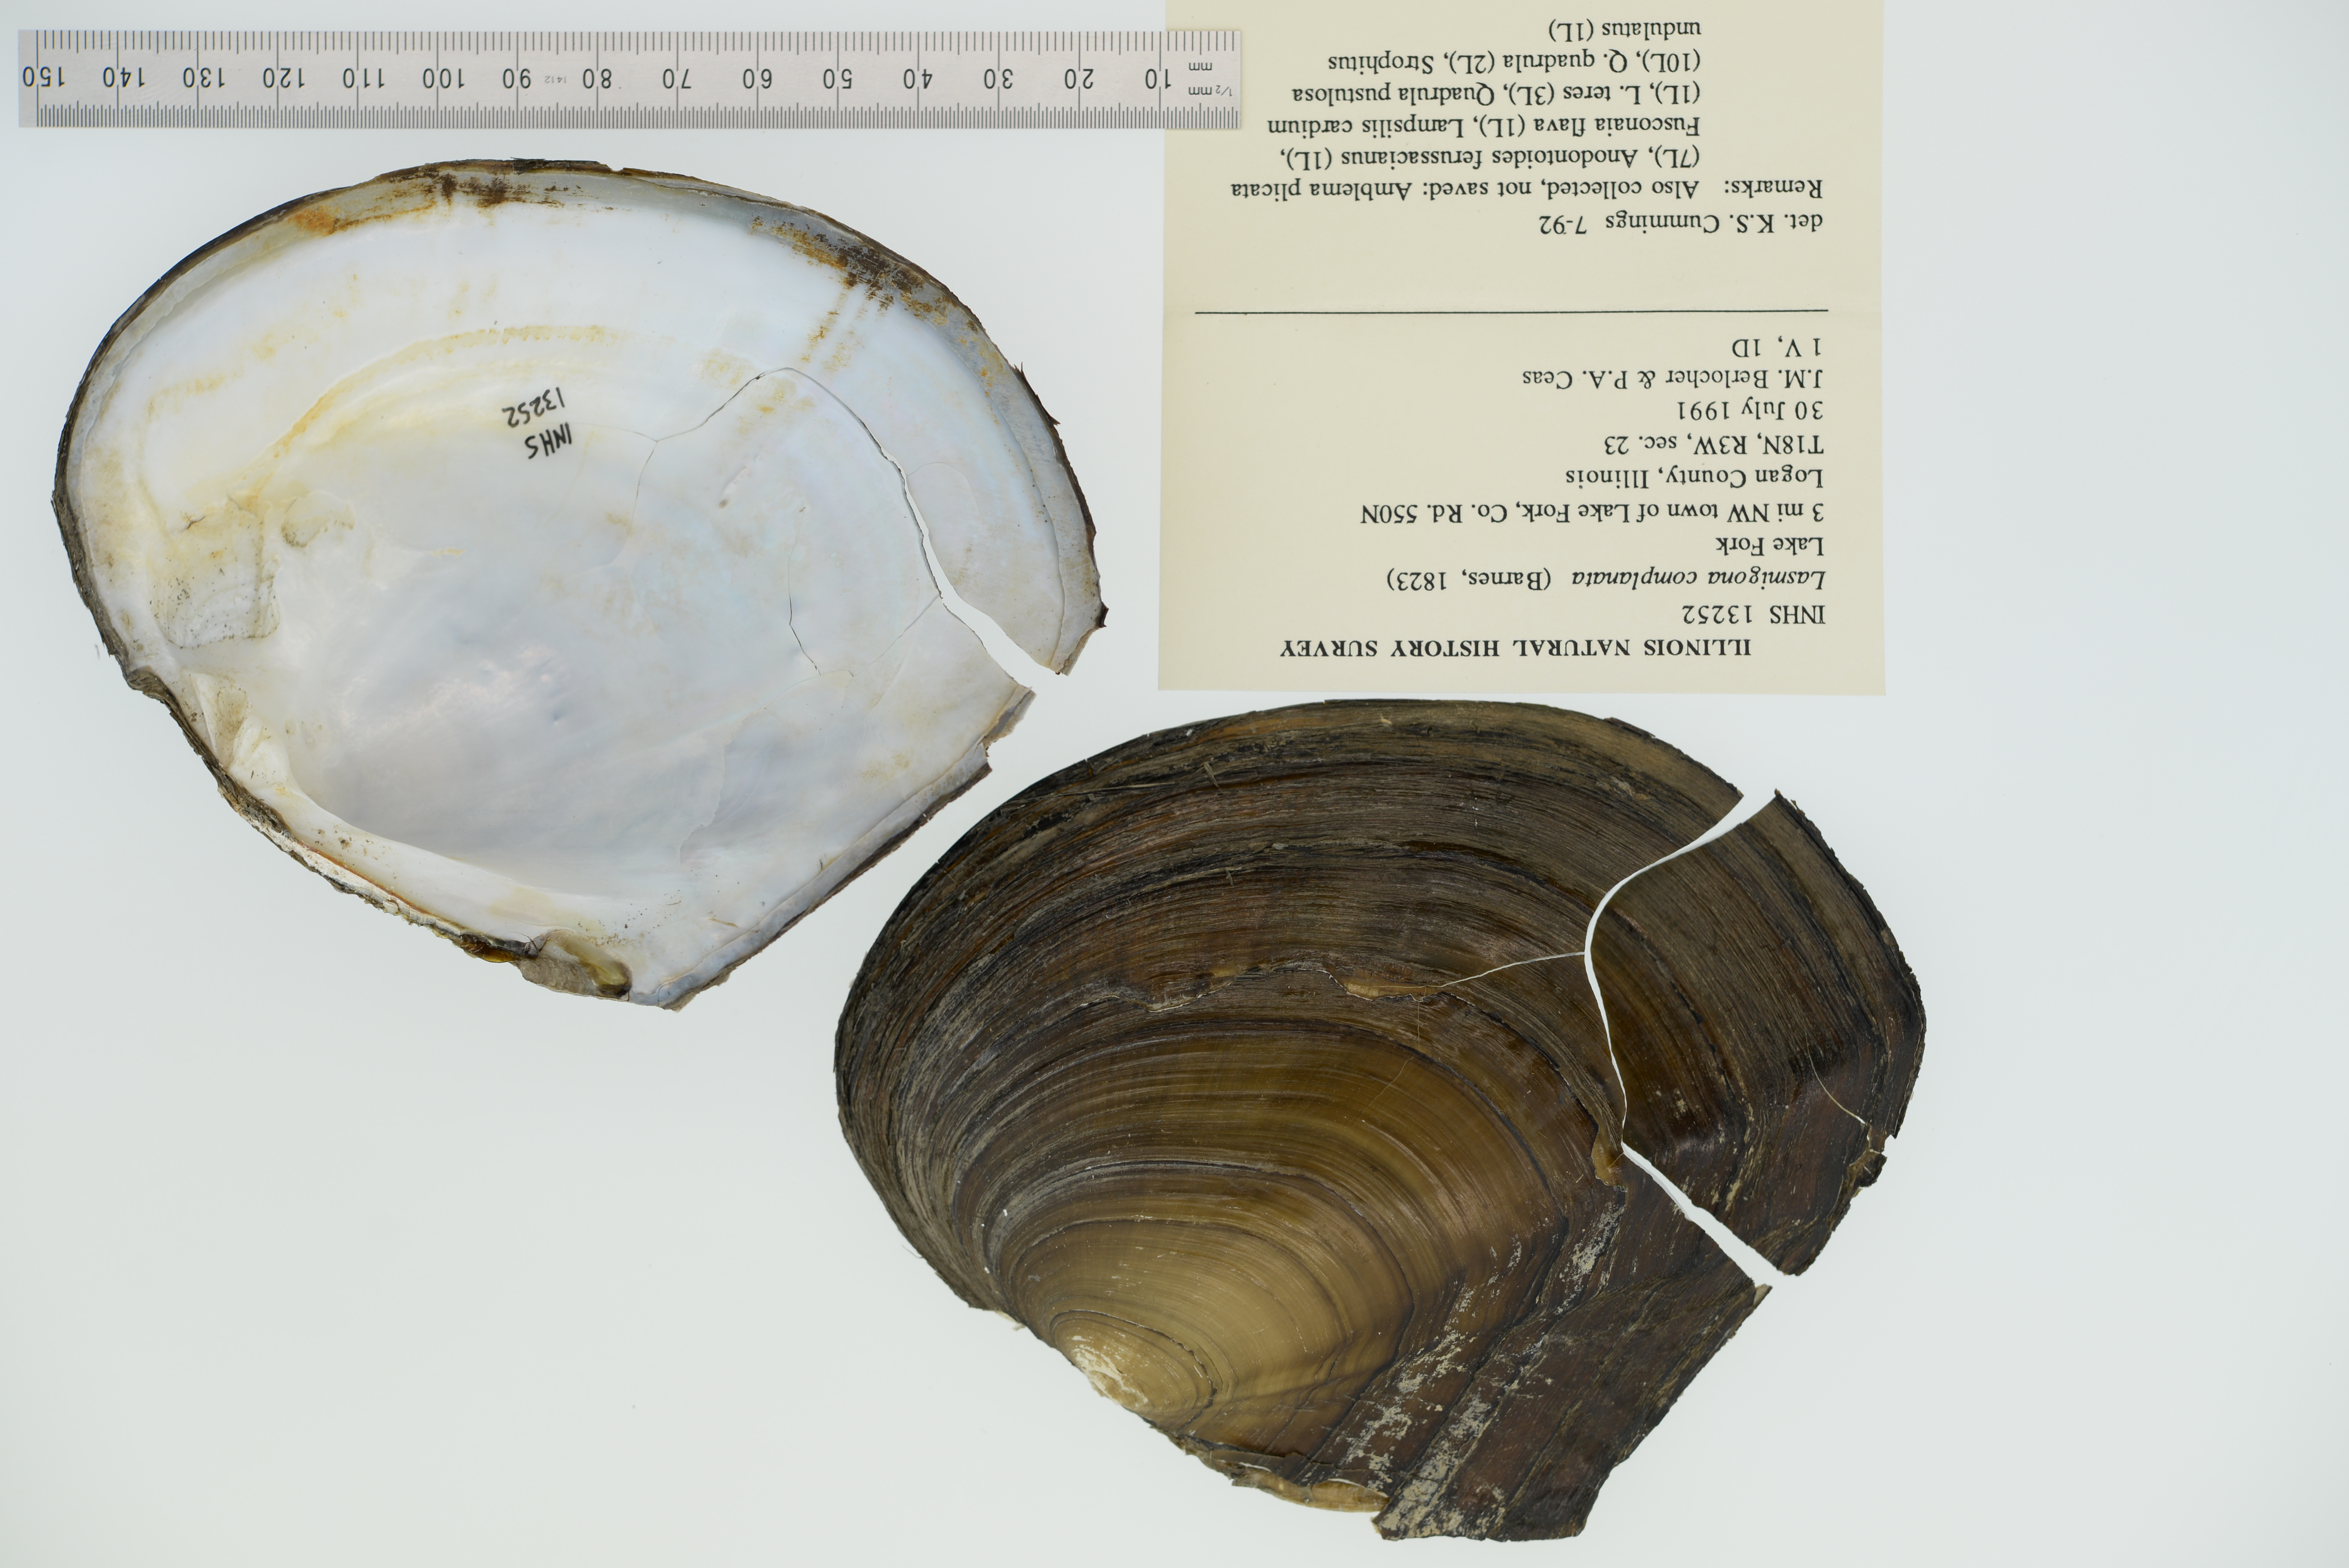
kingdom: Animalia
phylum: Mollusca
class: Bivalvia
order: Unionida
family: Unionidae
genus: Lasmigona
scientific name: Lasmigona complanata
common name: White heelsplitter
